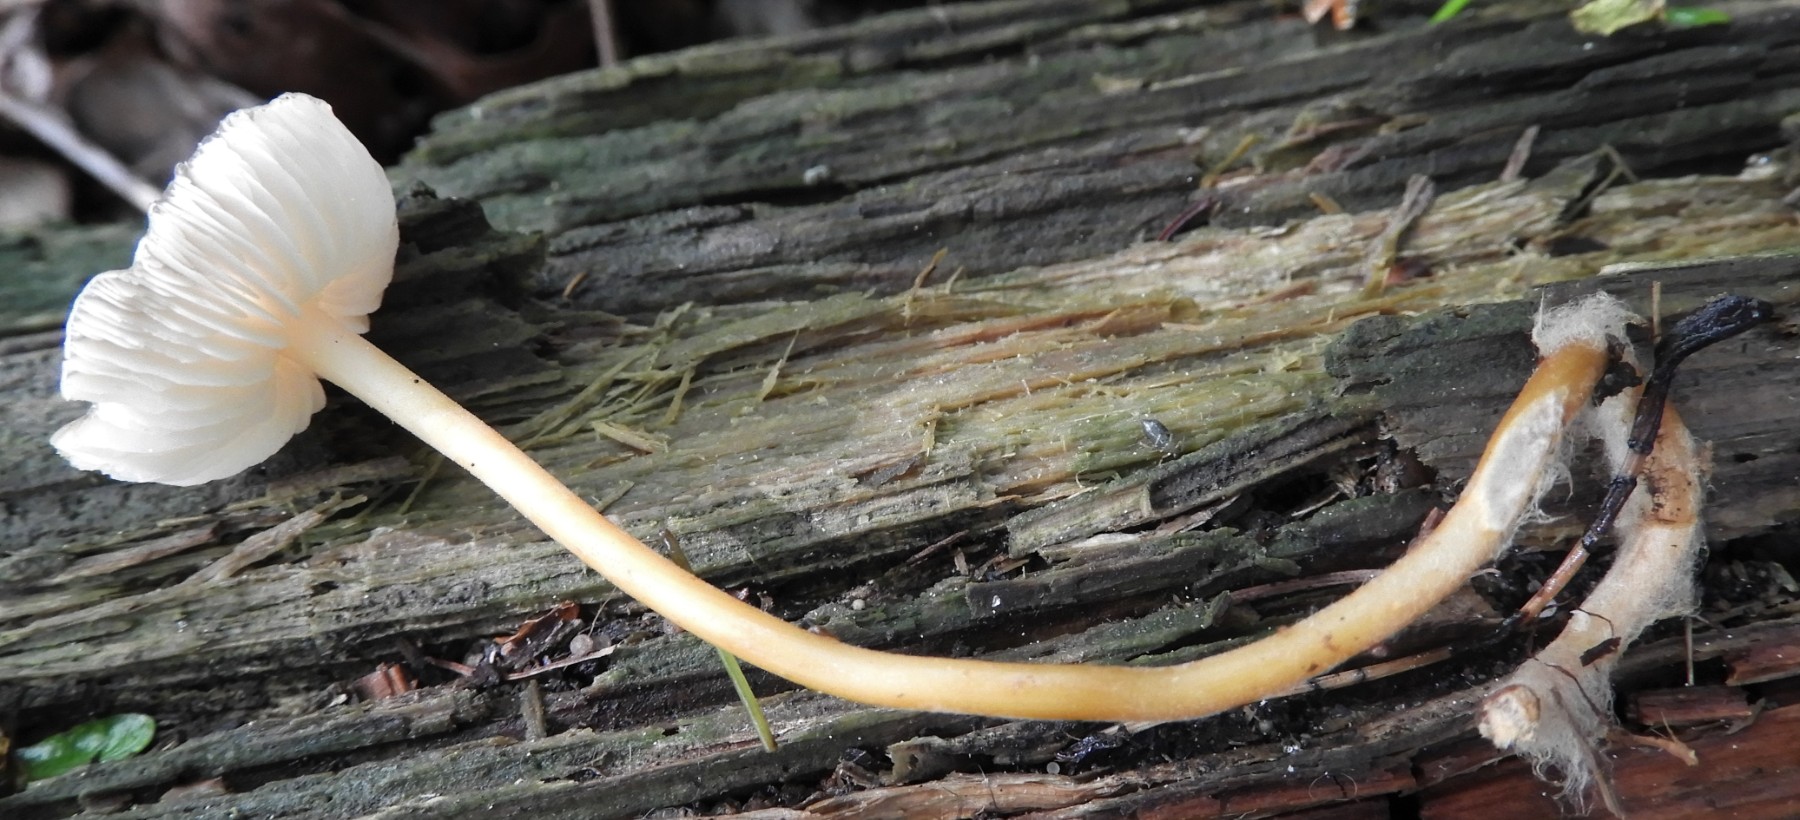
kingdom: Fungi
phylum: Basidiomycota
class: Agaricomycetes
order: Agaricales
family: Physalacriaceae
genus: Strobilurus
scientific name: Strobilurus esculentus
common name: gran-koglehat
